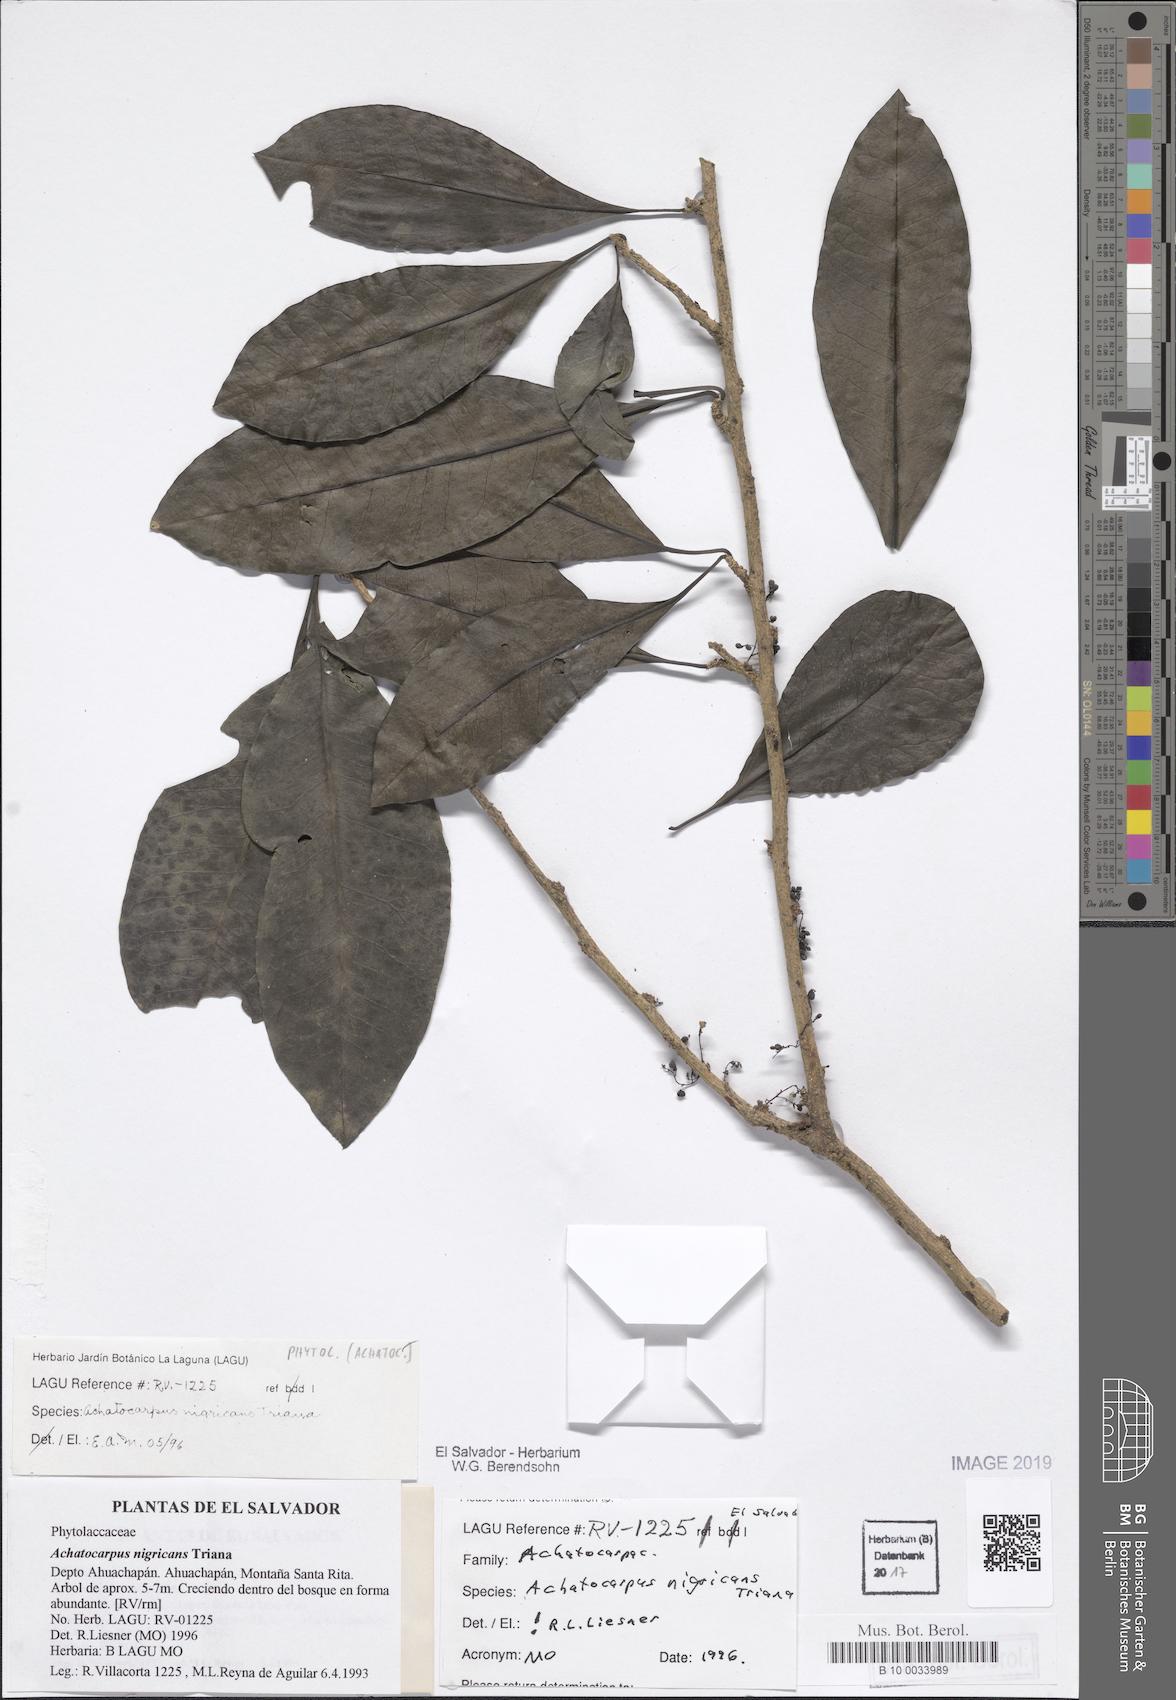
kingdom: Plantae
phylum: Tracheophyta
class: Magnoliopsida
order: Caryophyllales
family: Achatocarpaceae
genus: Achatocarpus
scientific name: Achatocarpus nigricans
